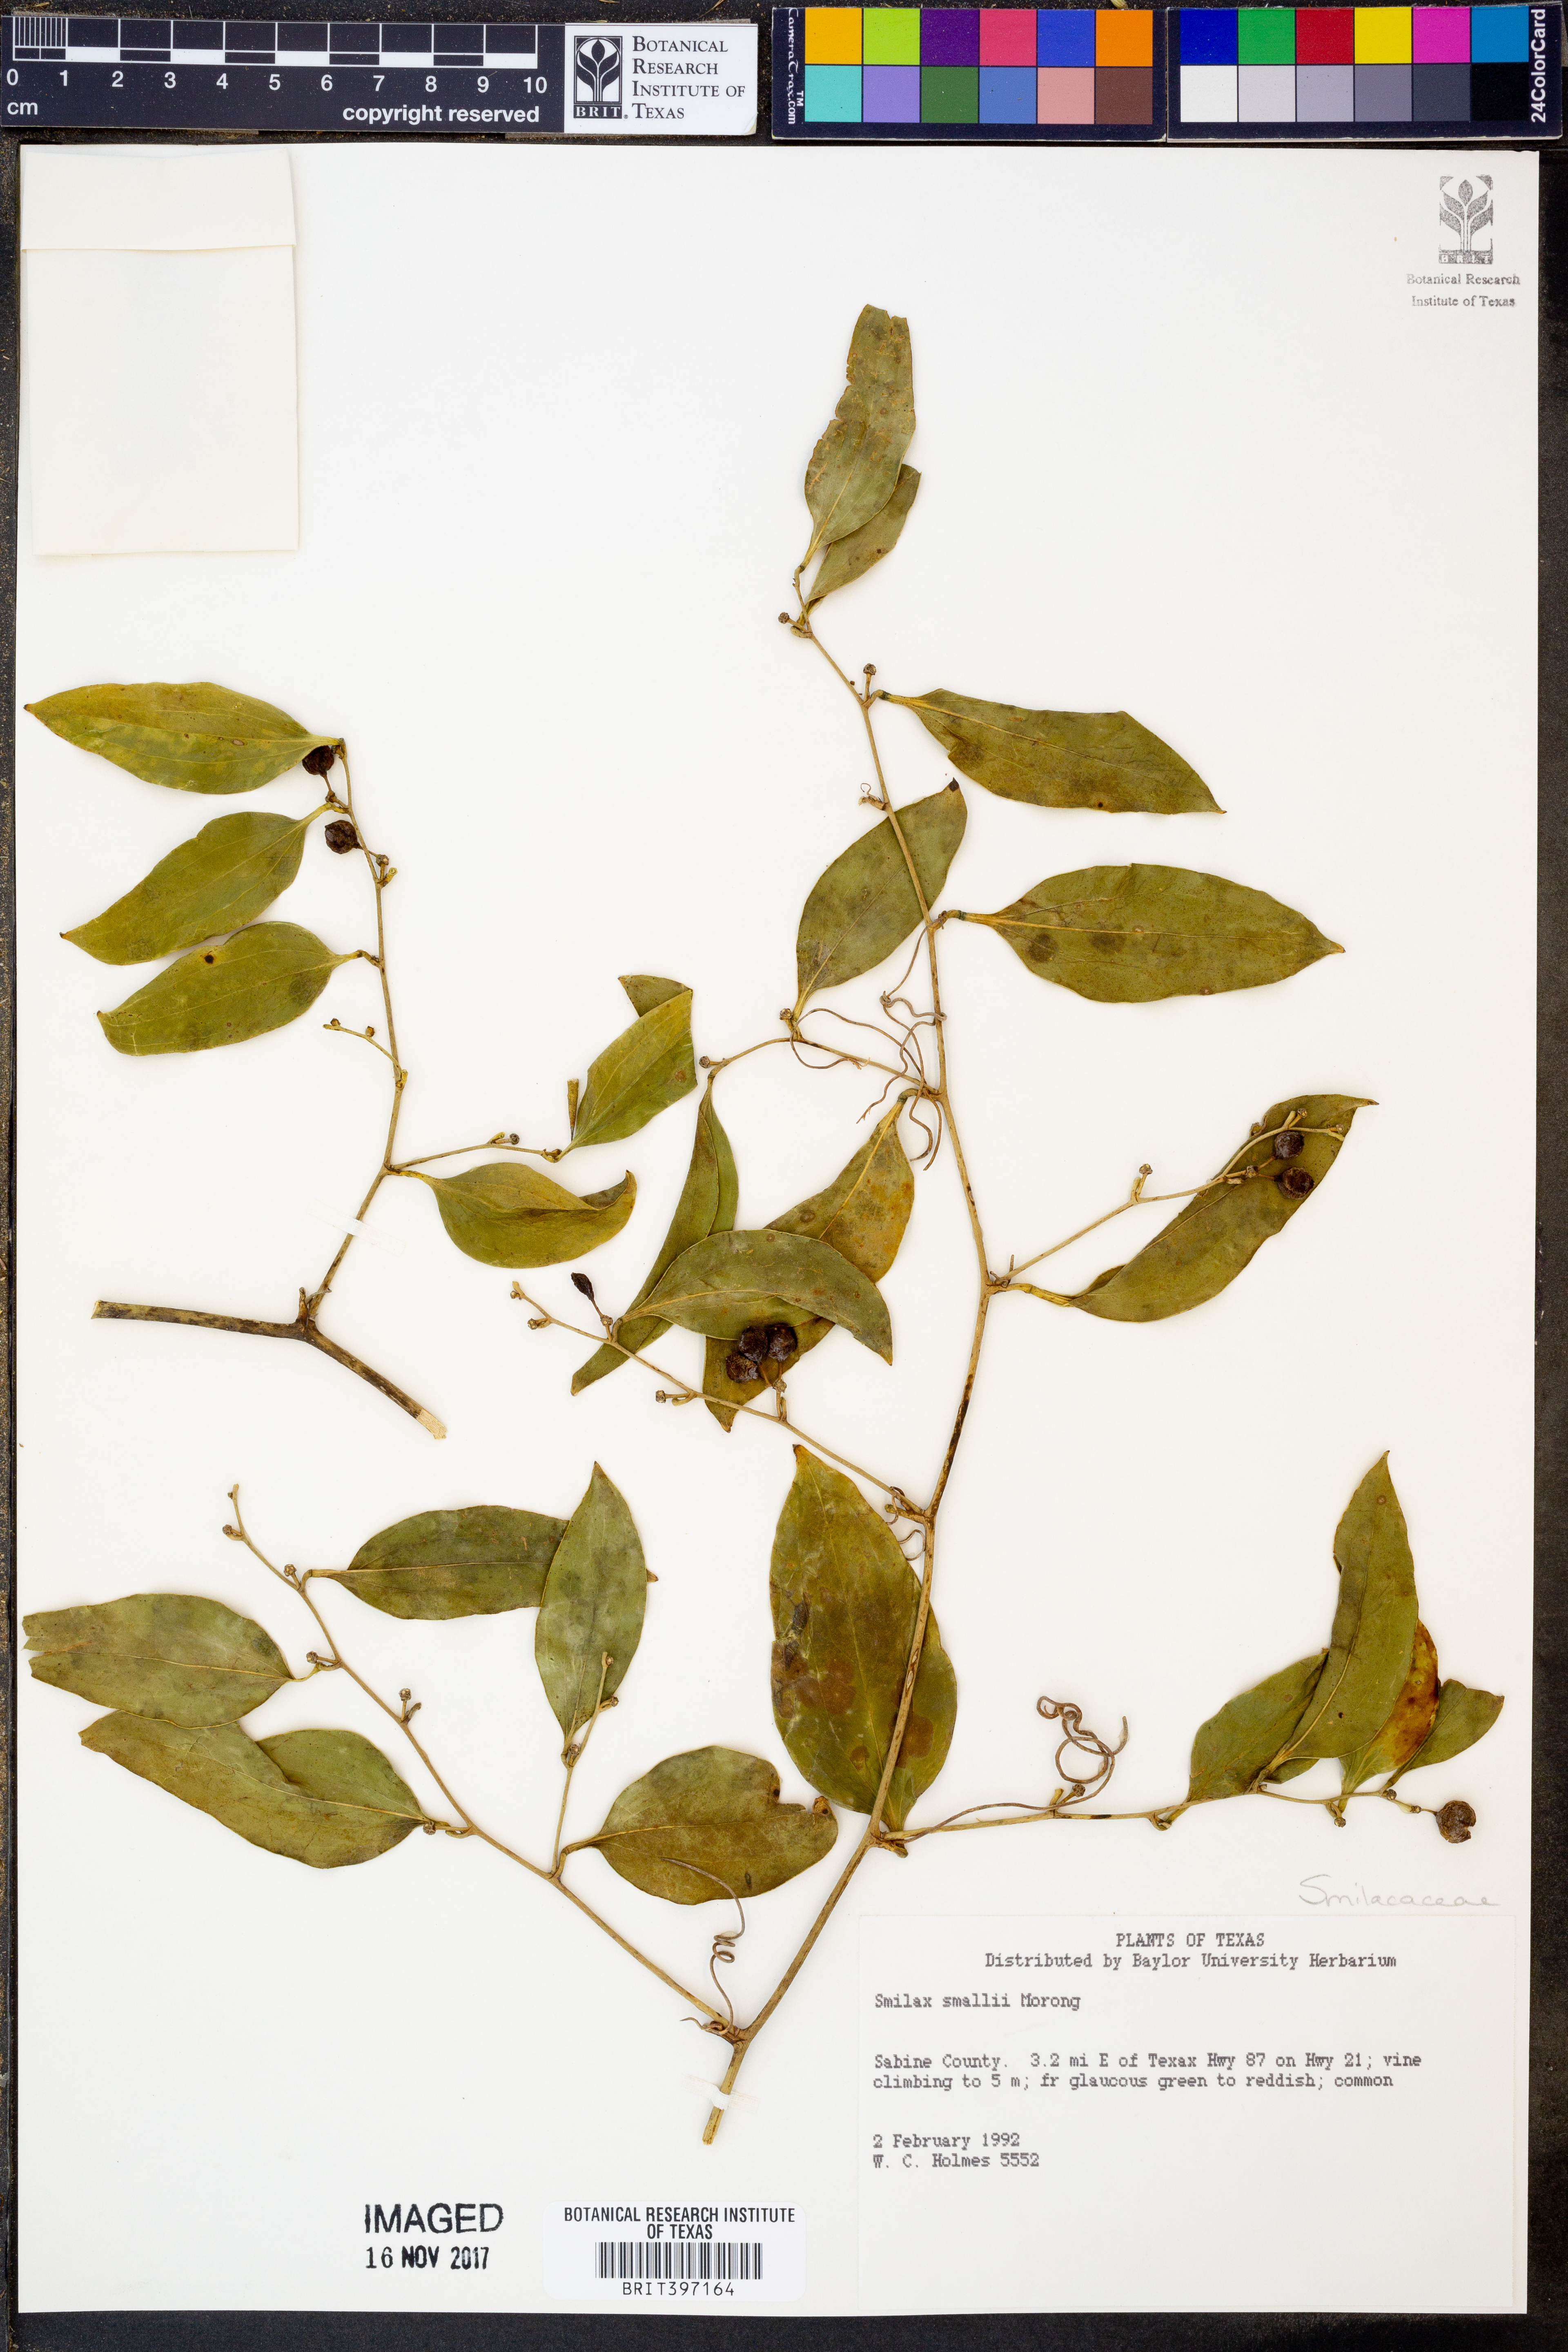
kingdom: Plantae
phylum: Tracheophyta
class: Liliopsida
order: Liliales
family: Smilacaceae
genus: Smilax
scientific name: Smilax maritima
